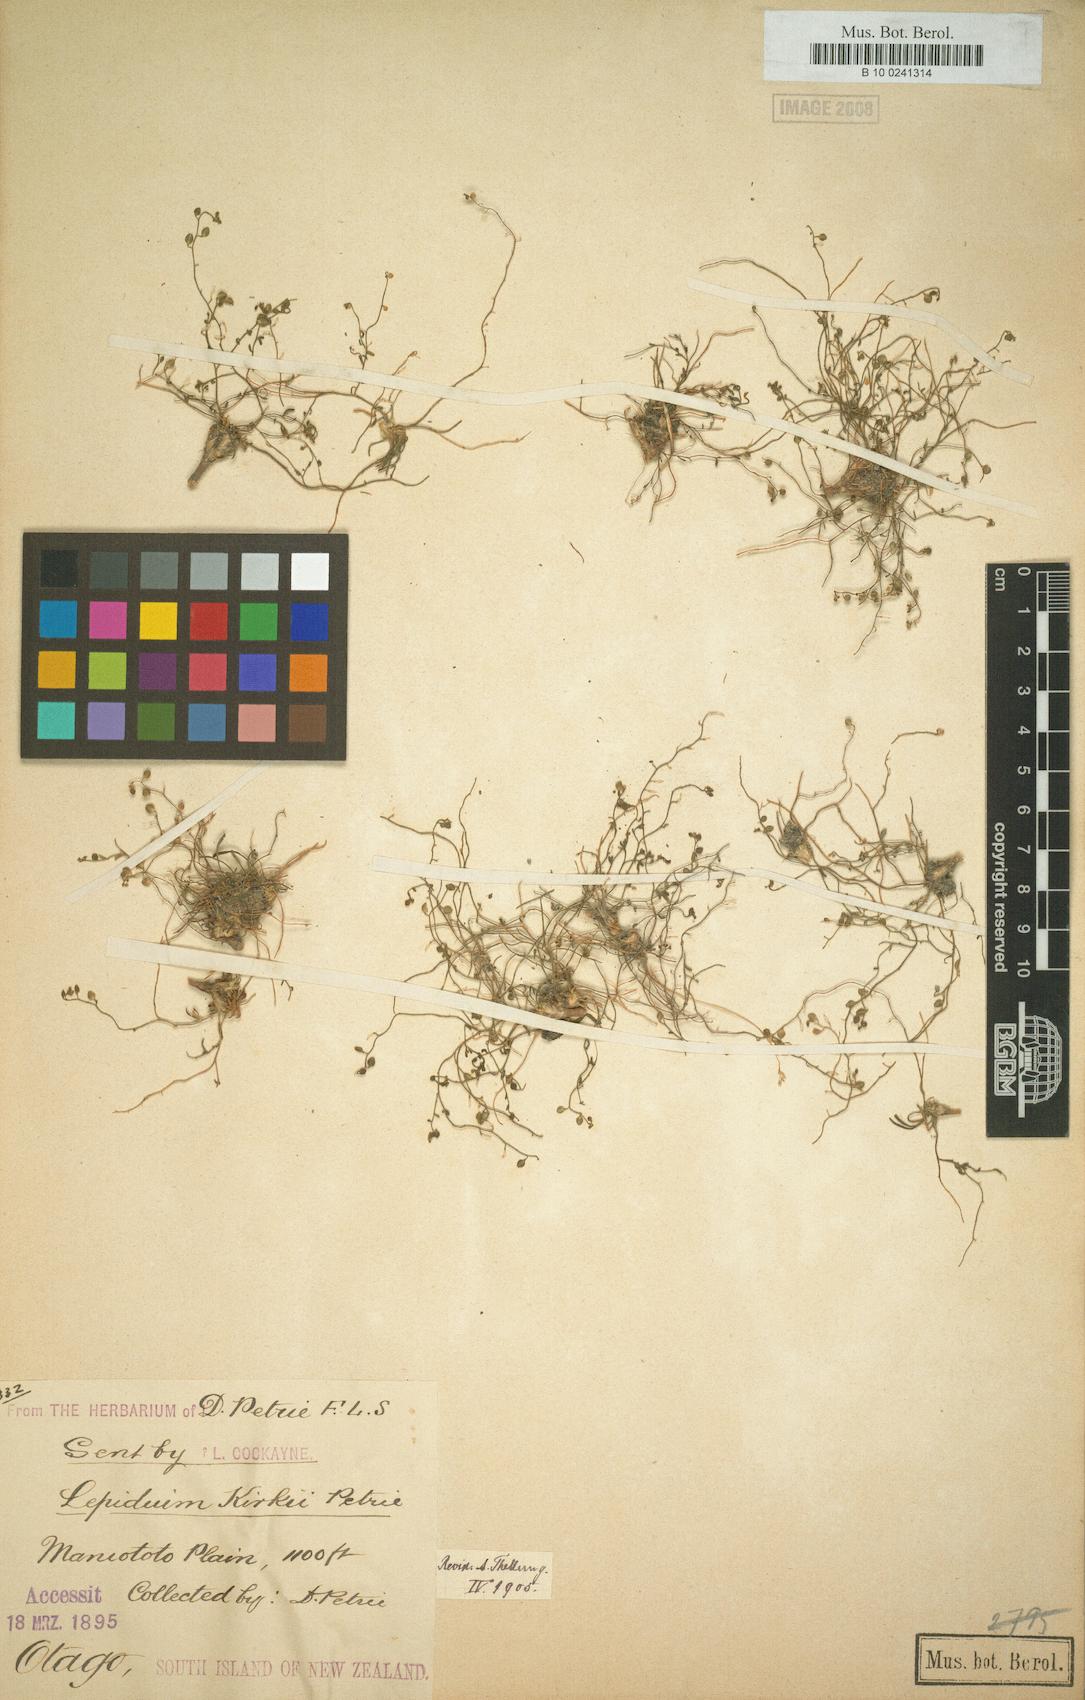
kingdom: Plantae
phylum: Tracheophyta
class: Magnoliopsida
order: Brassicales
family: Brassicaceae
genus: Lepidium
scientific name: Lepidium kirkii
